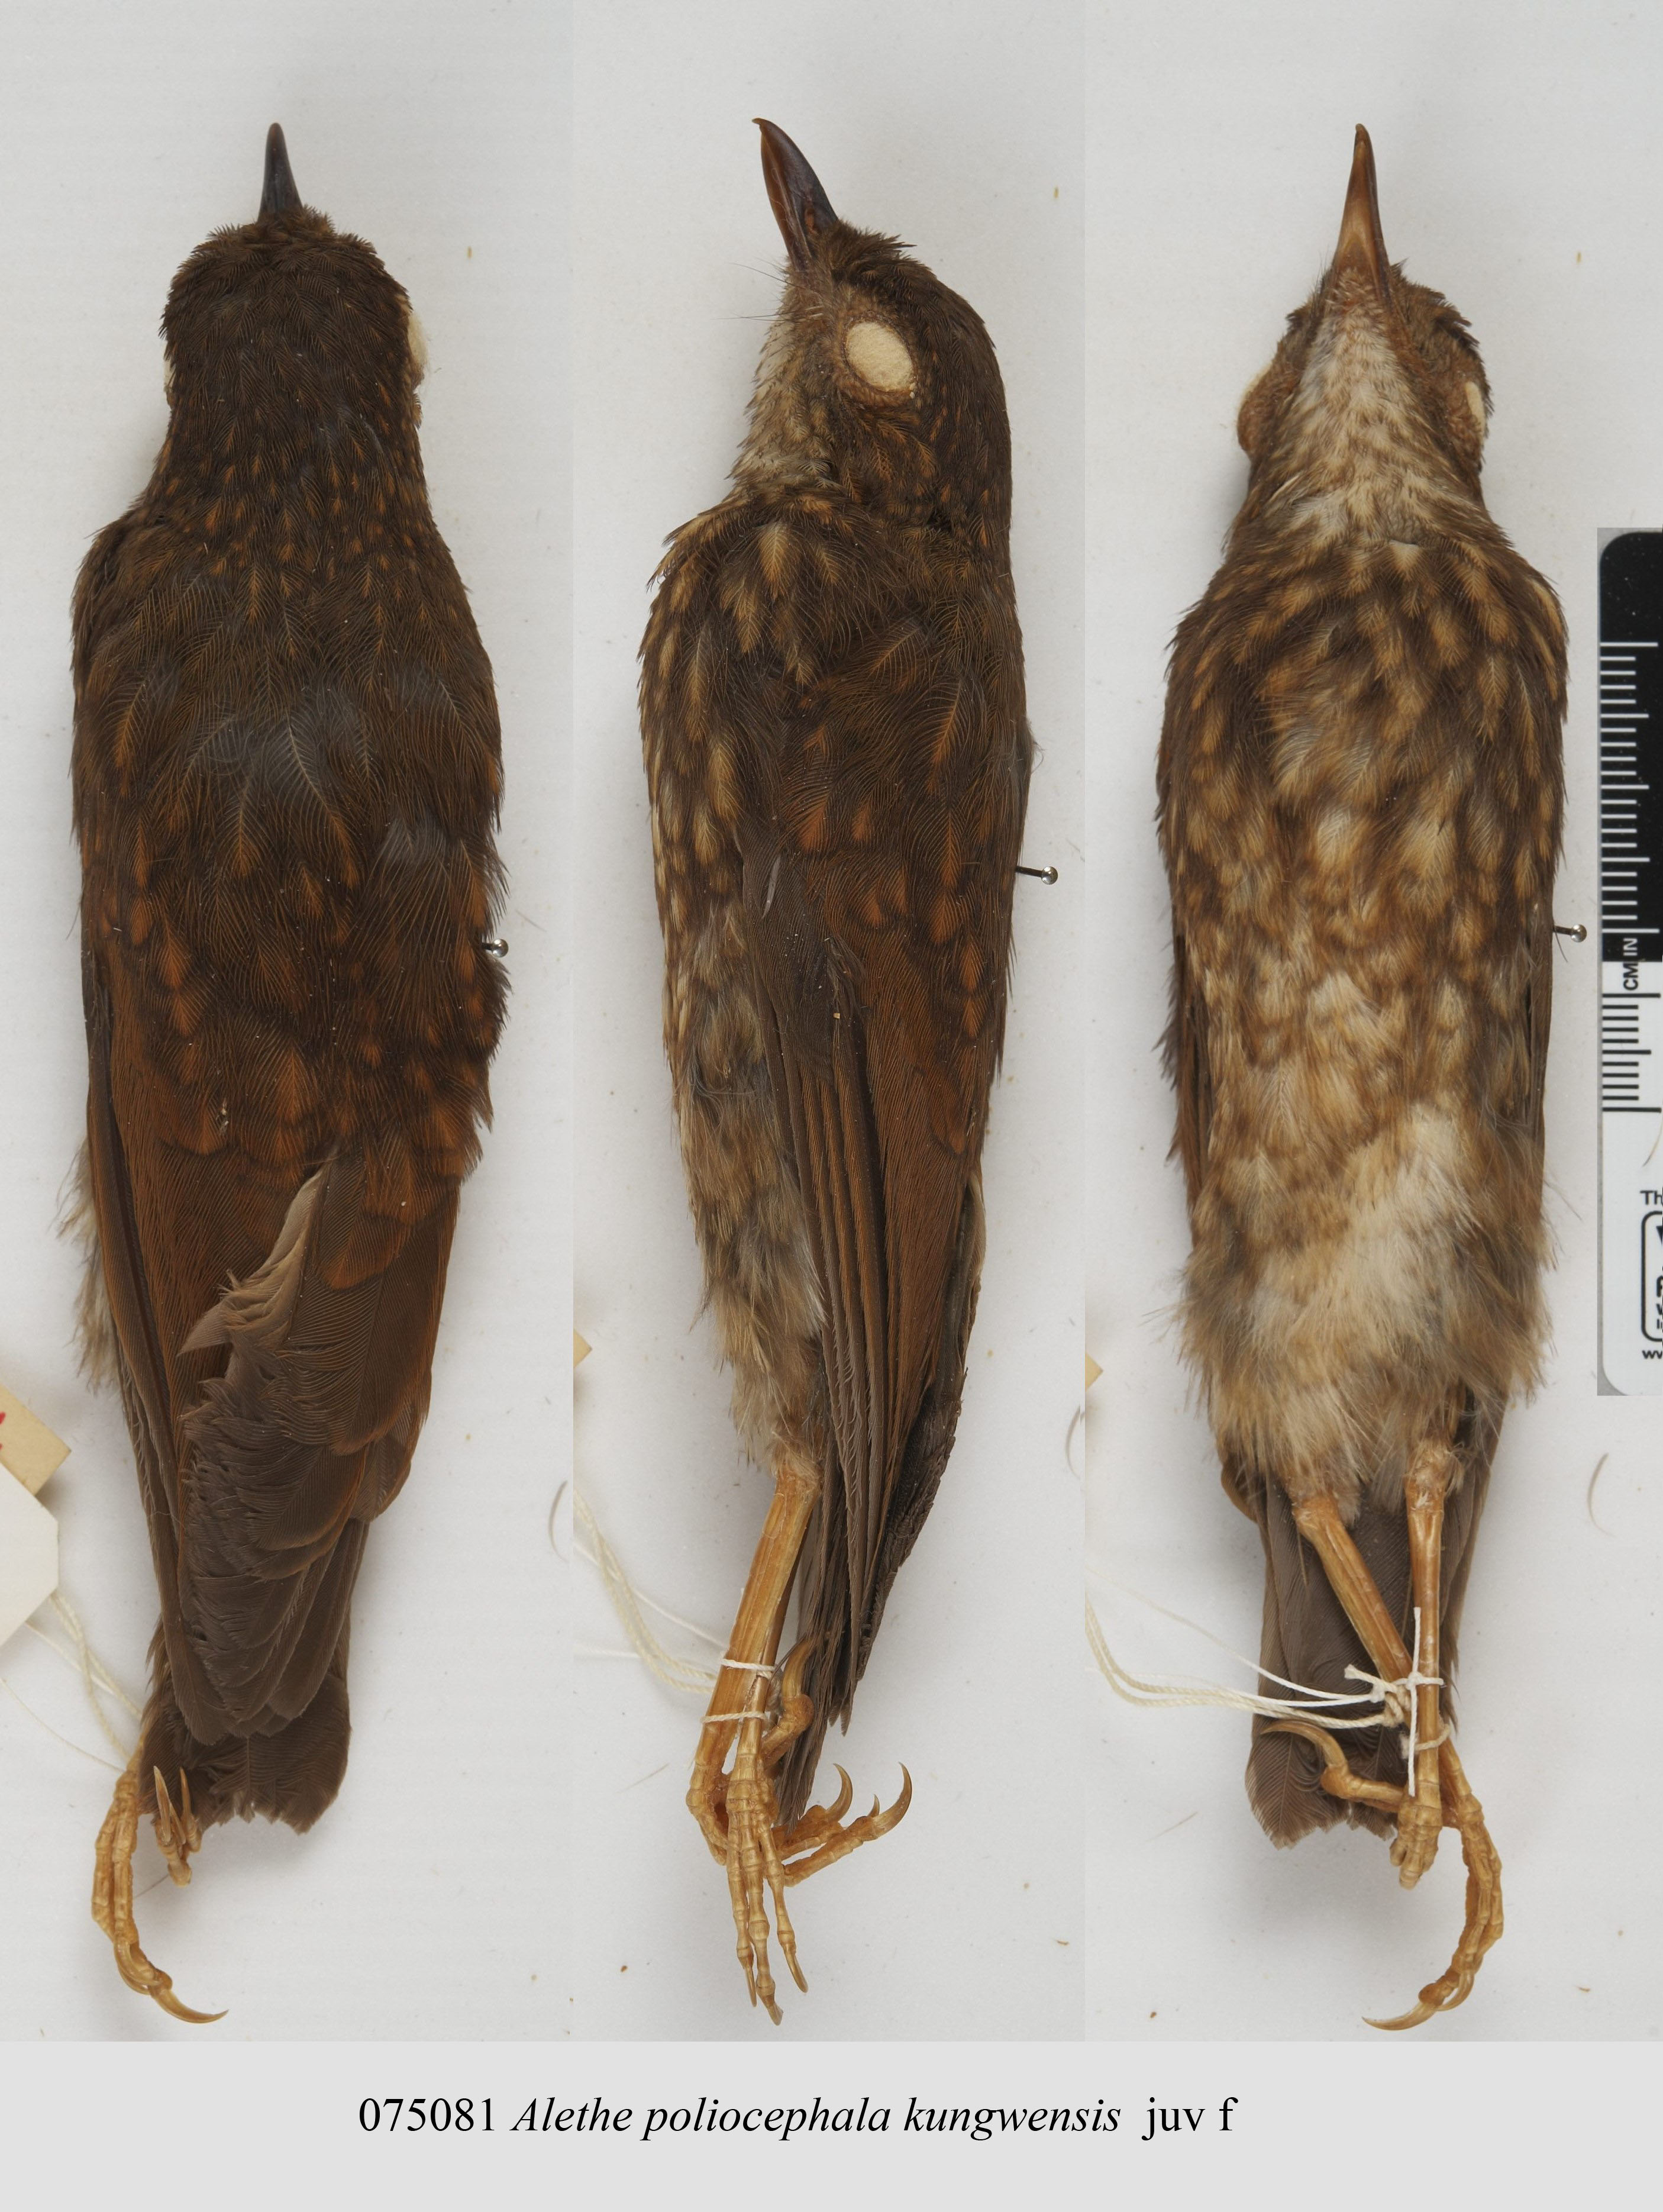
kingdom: Animalia
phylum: Chordata
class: Aves
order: Passeriformes
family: Turdidae
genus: Pseudalethe
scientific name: Pseudalethe poliocephala
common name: Brown-chested alethe
